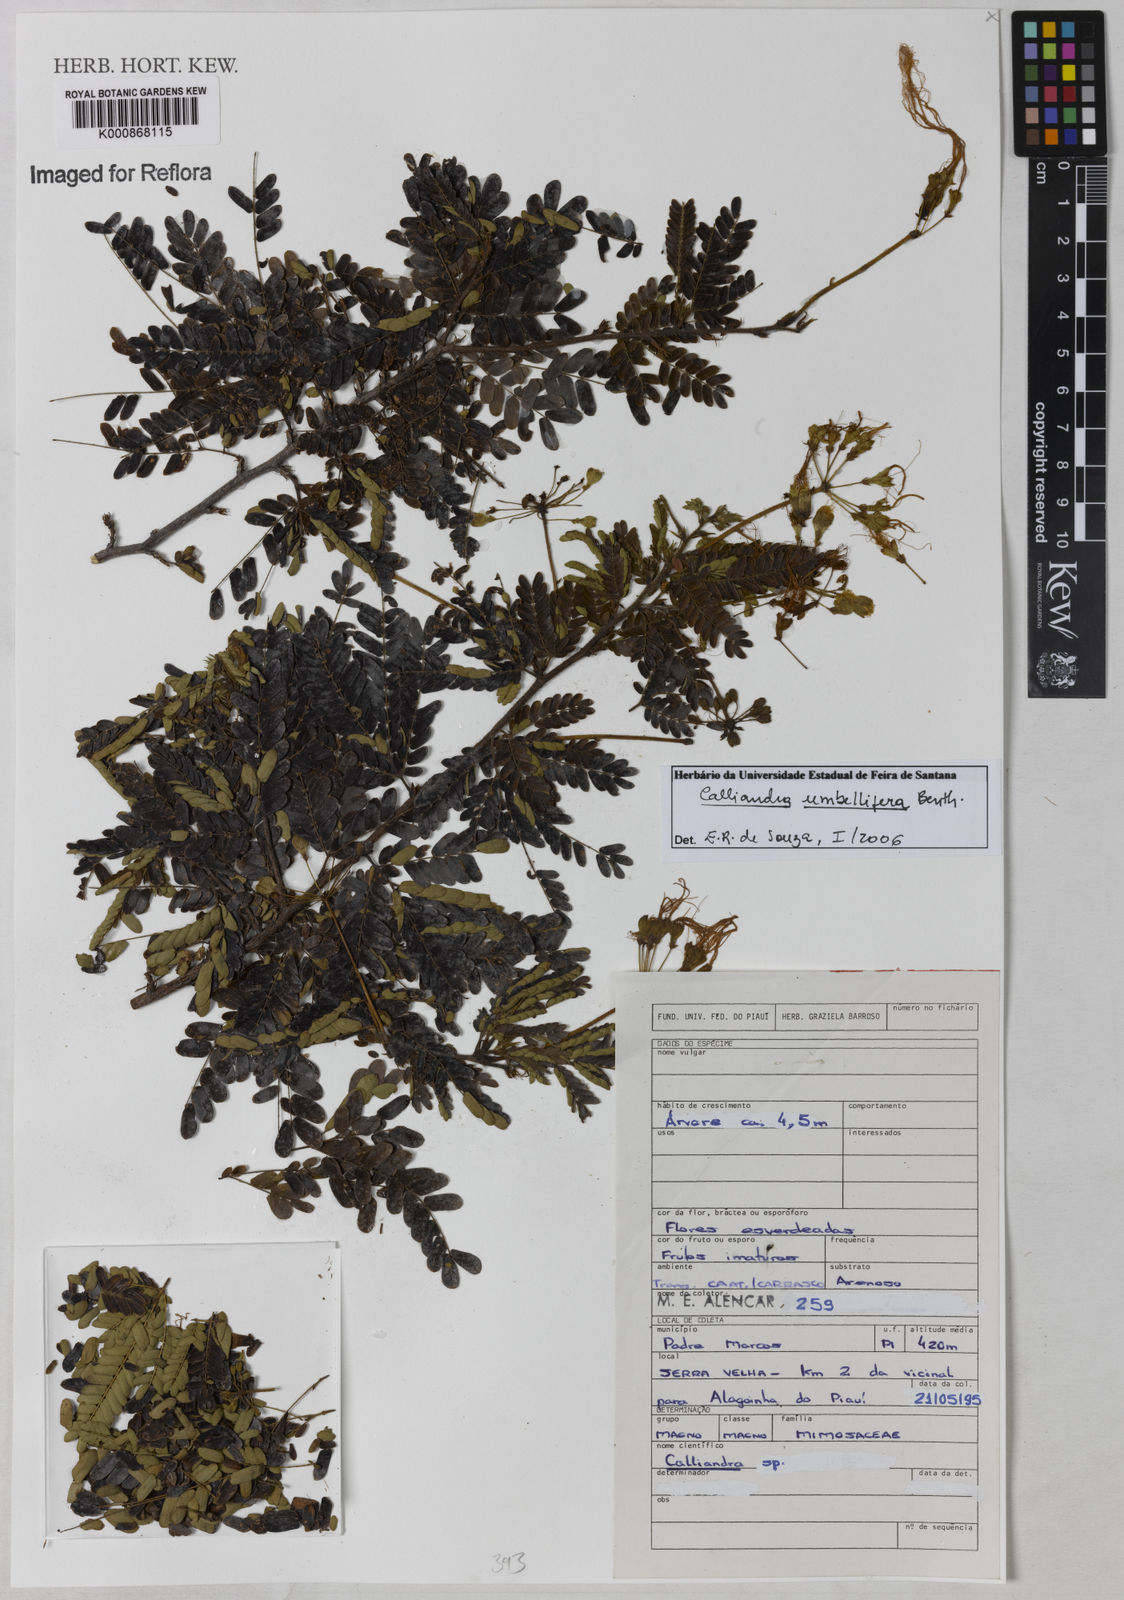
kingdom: Plantae
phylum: Tracheophyta
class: Magnoliopsida
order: Fabales
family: Fabaceae
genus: Calliandra
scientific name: Calliandra umbellifera
